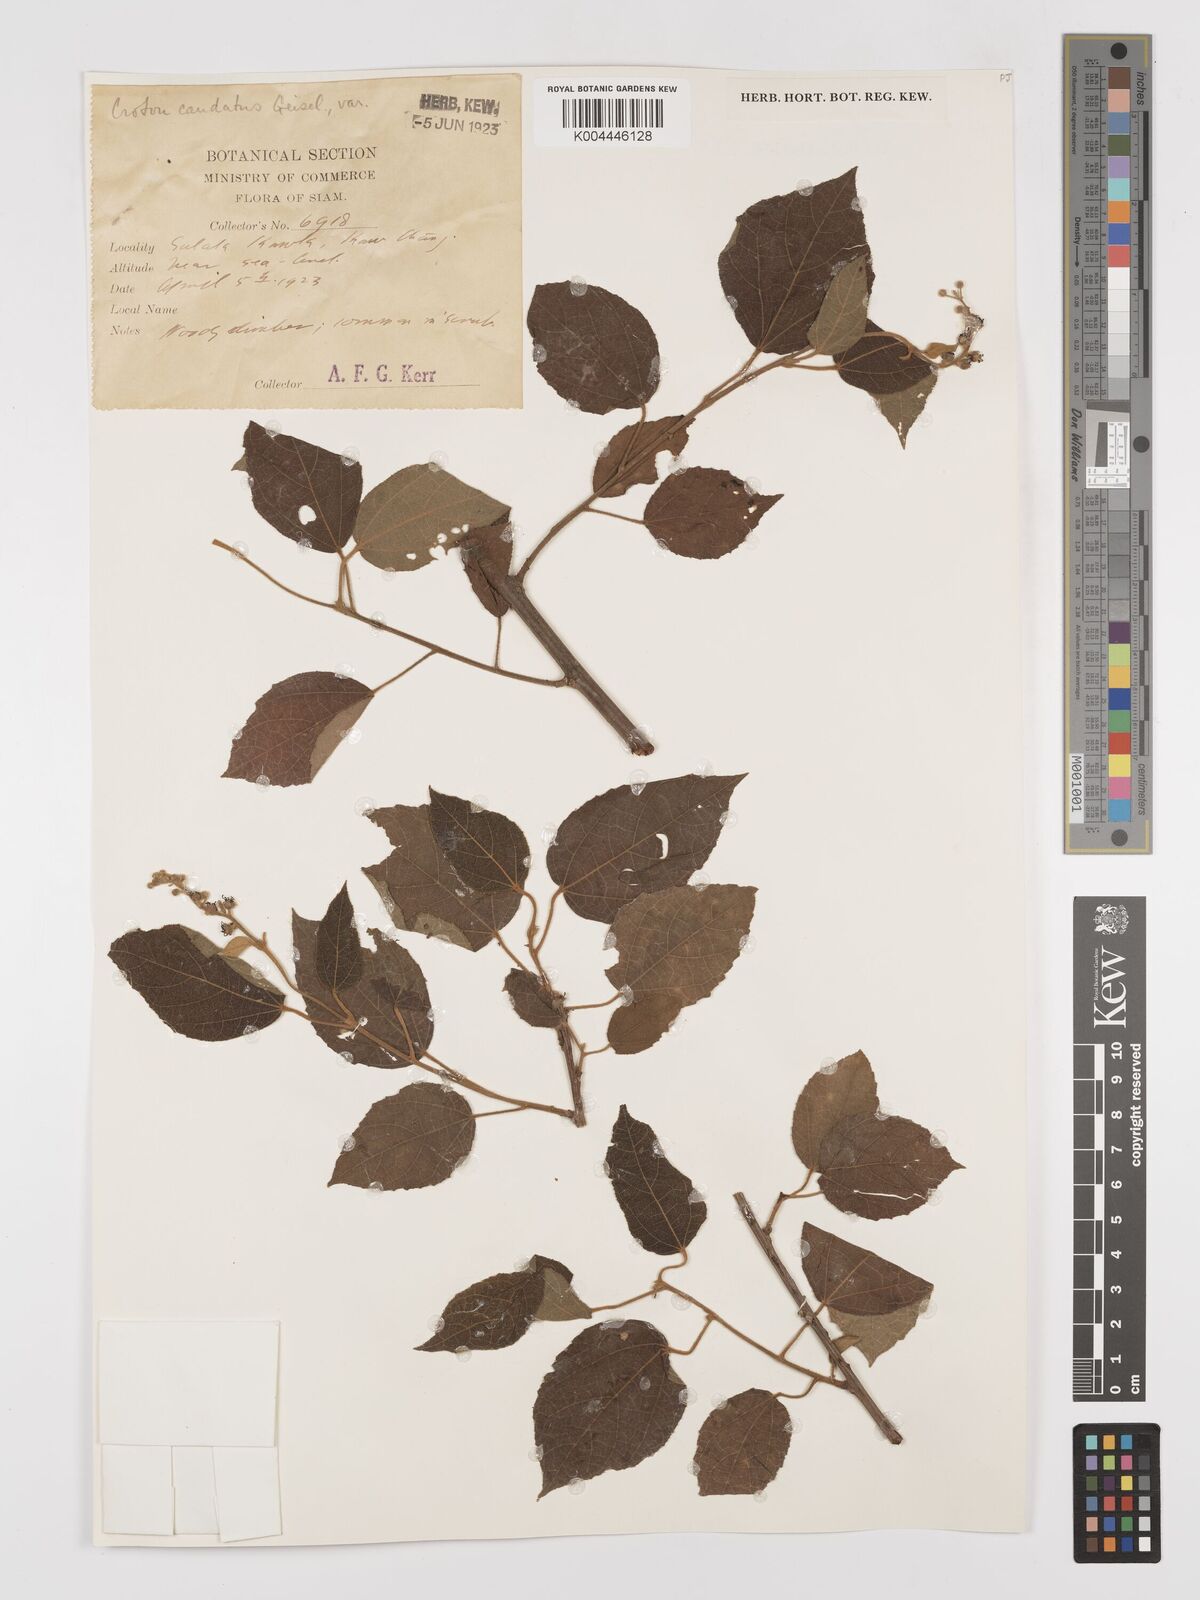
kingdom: Plantae
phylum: Tracheophyta
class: Magnoliopsida
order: Malpighiales
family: Euphorbiaceae
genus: Croton
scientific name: Croton caudatus
